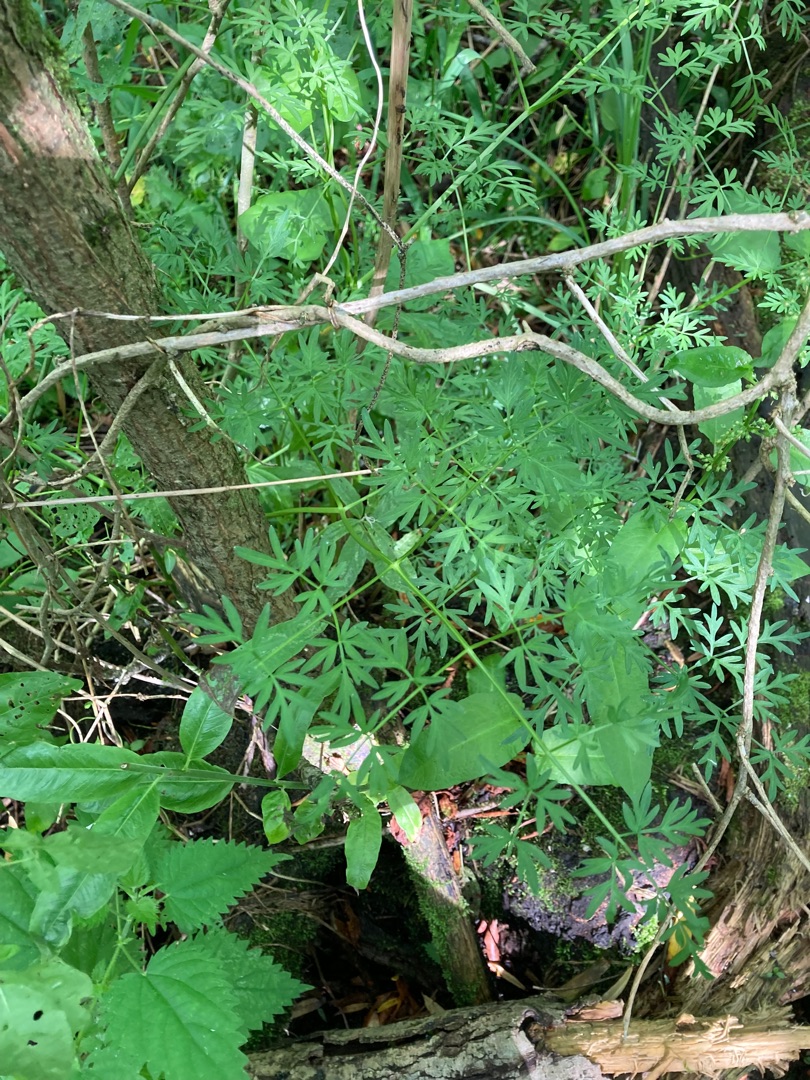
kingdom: Plantae
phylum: Tracheophyta
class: Magnoliopsida
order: Apiales
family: Apiaceae
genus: Thysselinum
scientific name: Thysselinum palustre
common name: Kær-svovlrod
